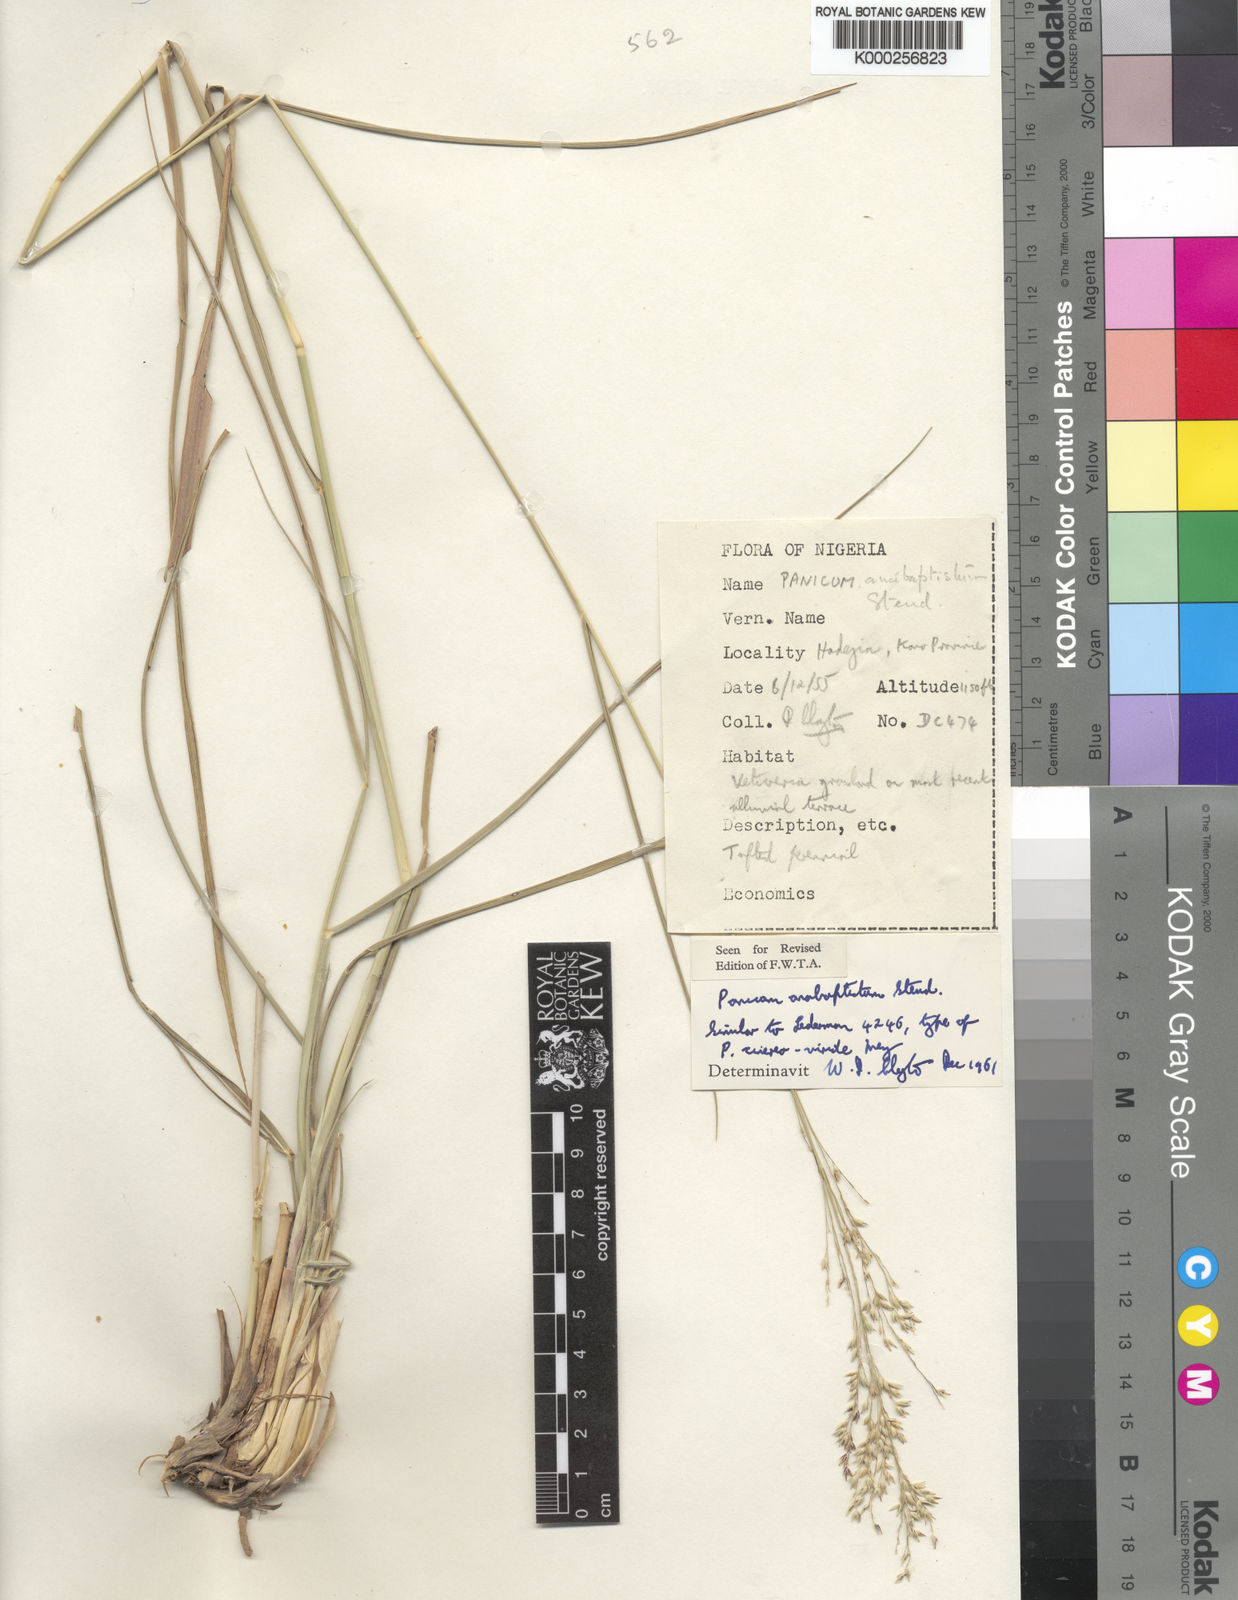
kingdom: Plantae
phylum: Tracheophyta
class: Liliopsida
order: Poales
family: Poaceae
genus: Panicum
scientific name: Panicum anabaptistum
